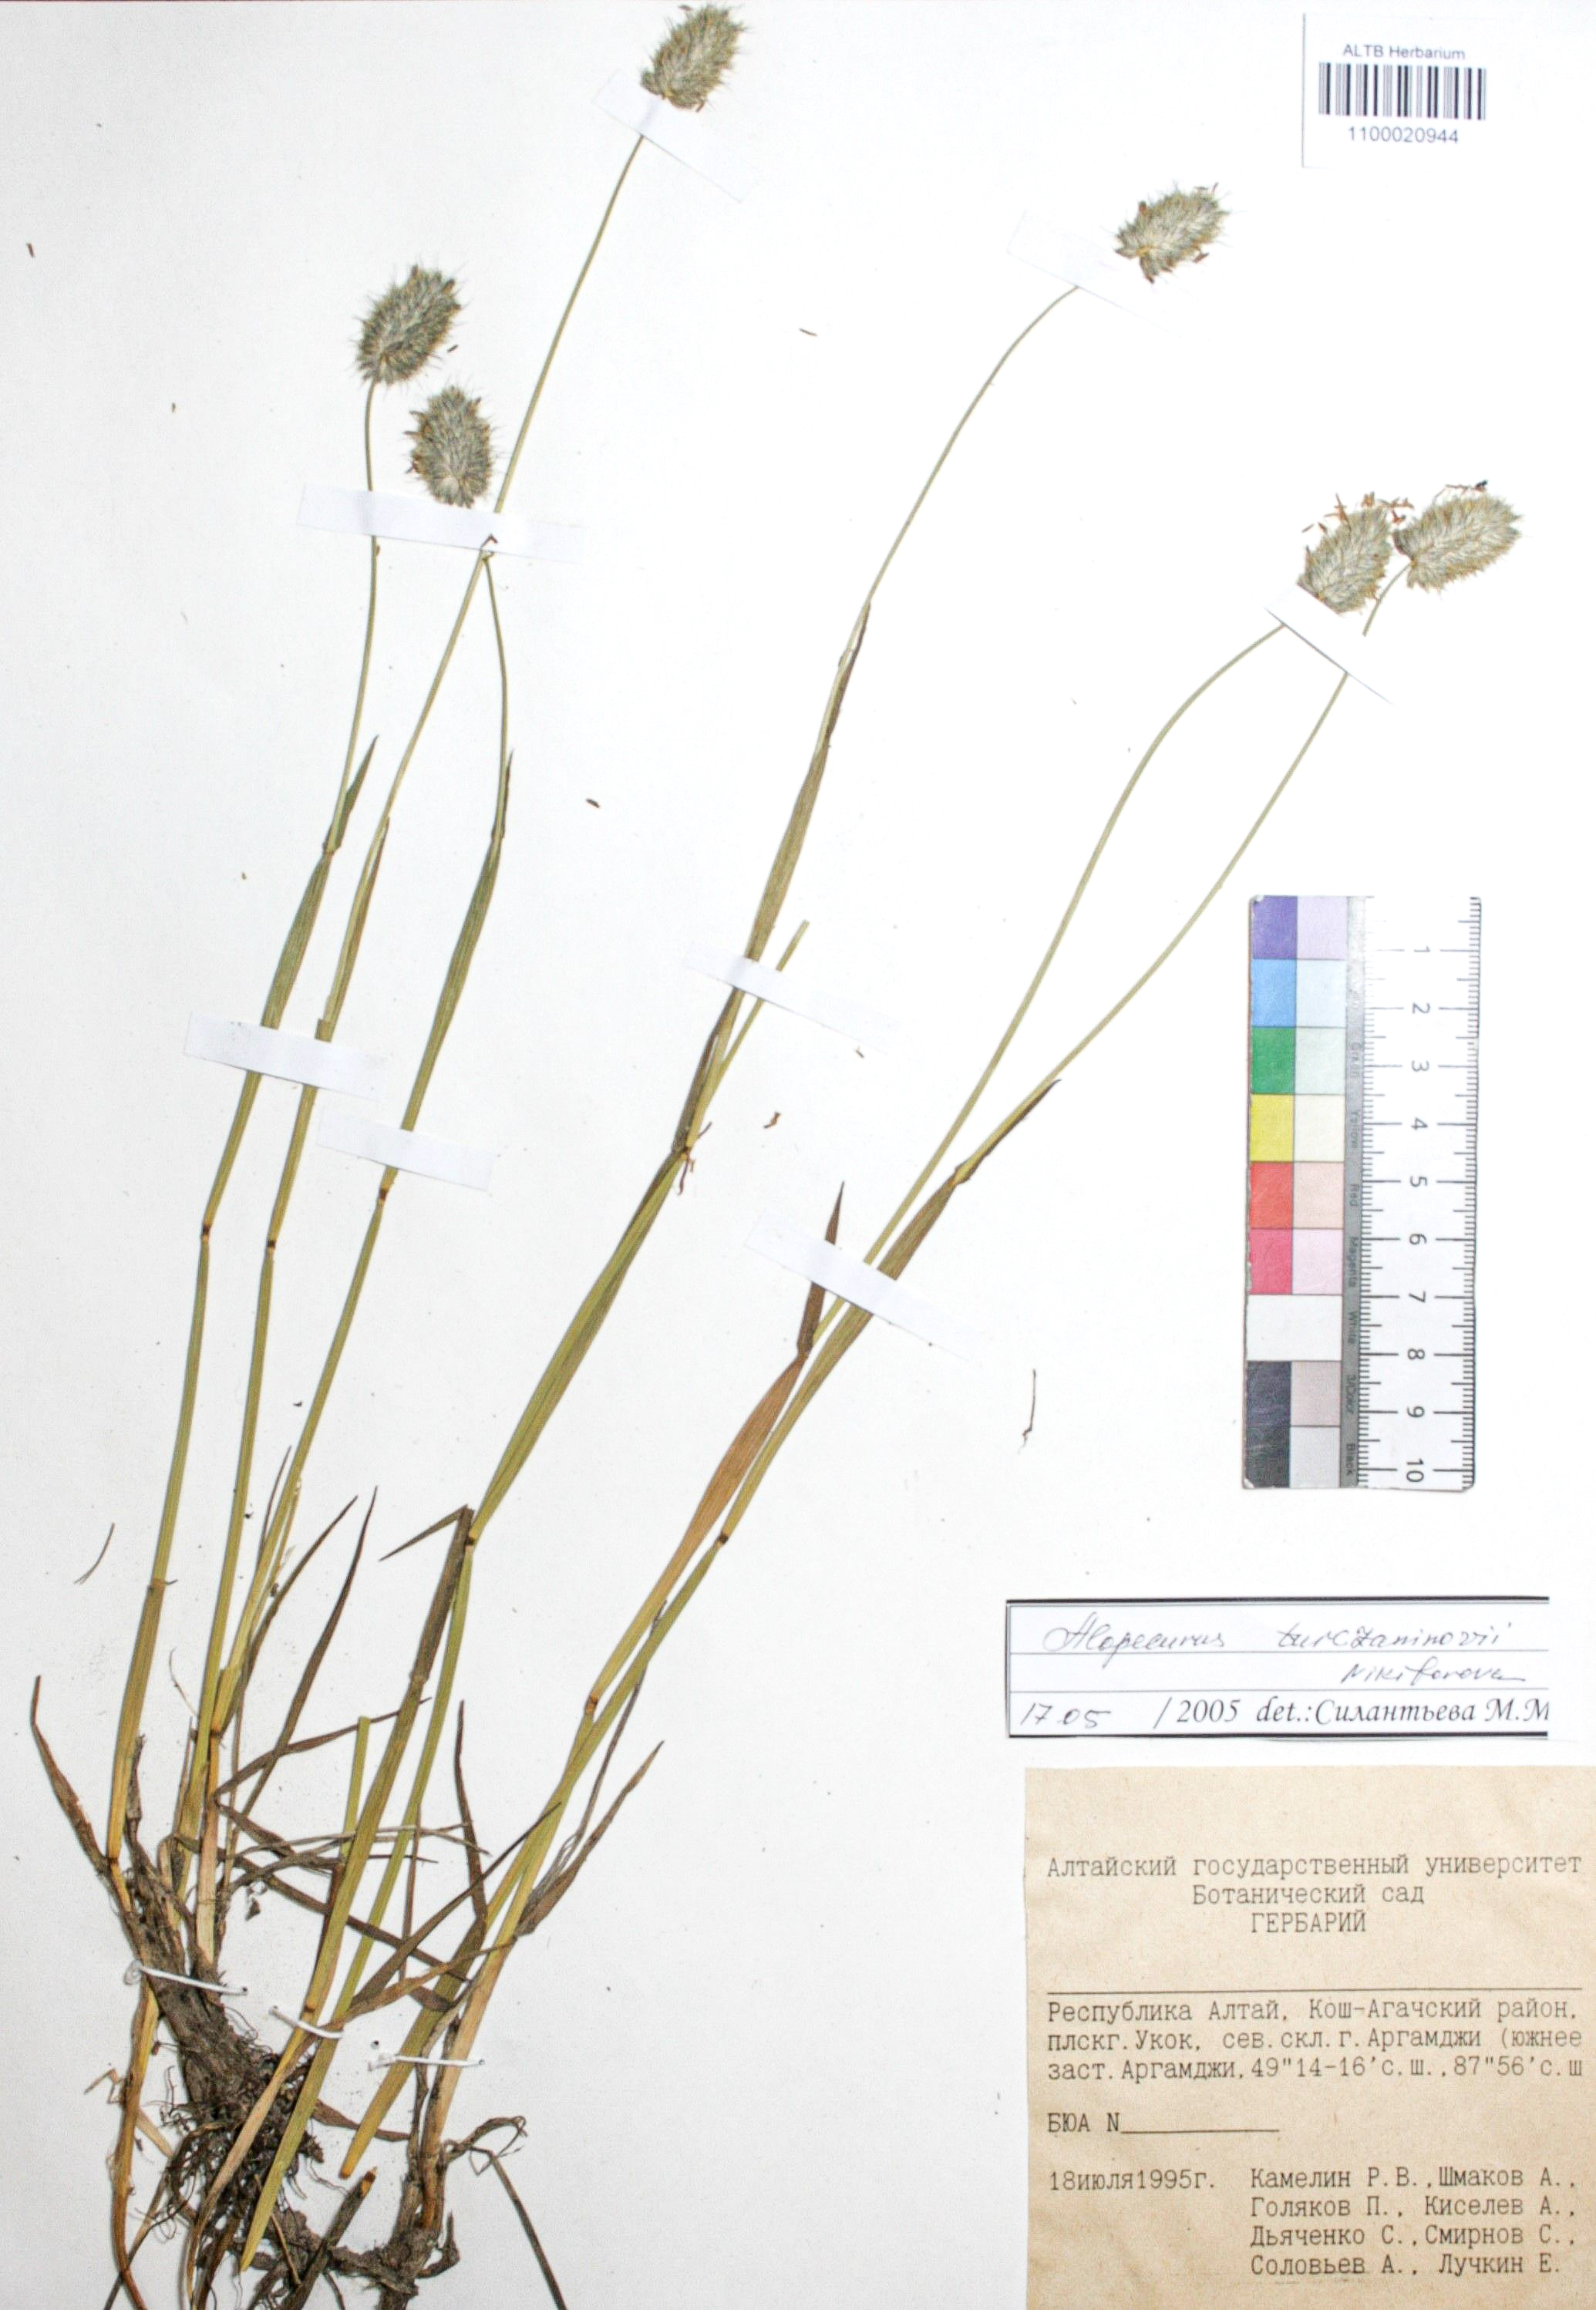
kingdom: Plantae
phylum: Tracheophyta
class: Liliopsida
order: Poales
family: Poaceae
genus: Alopecurus
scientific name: Alopecurus turczaninovii
